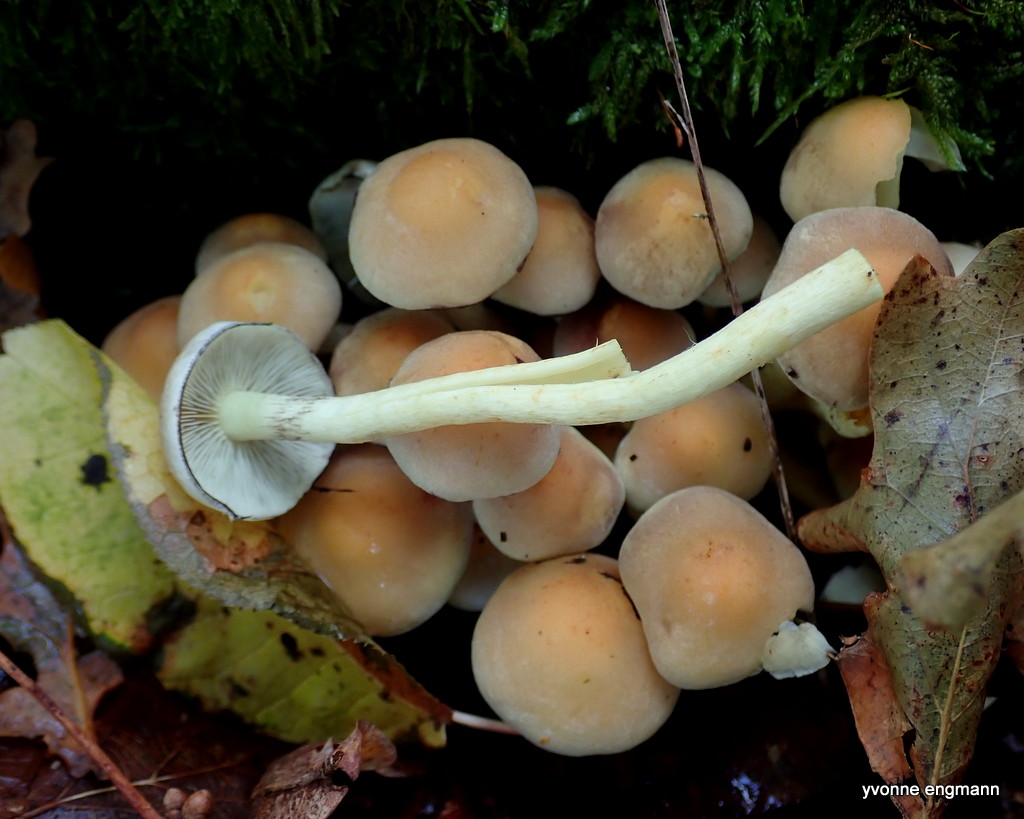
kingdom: Fungi
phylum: Basidiomycota
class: Agaricomycetes
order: Agaricales
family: Strophariaceae
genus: Hypholoma
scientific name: Hypholoma fasciculare
